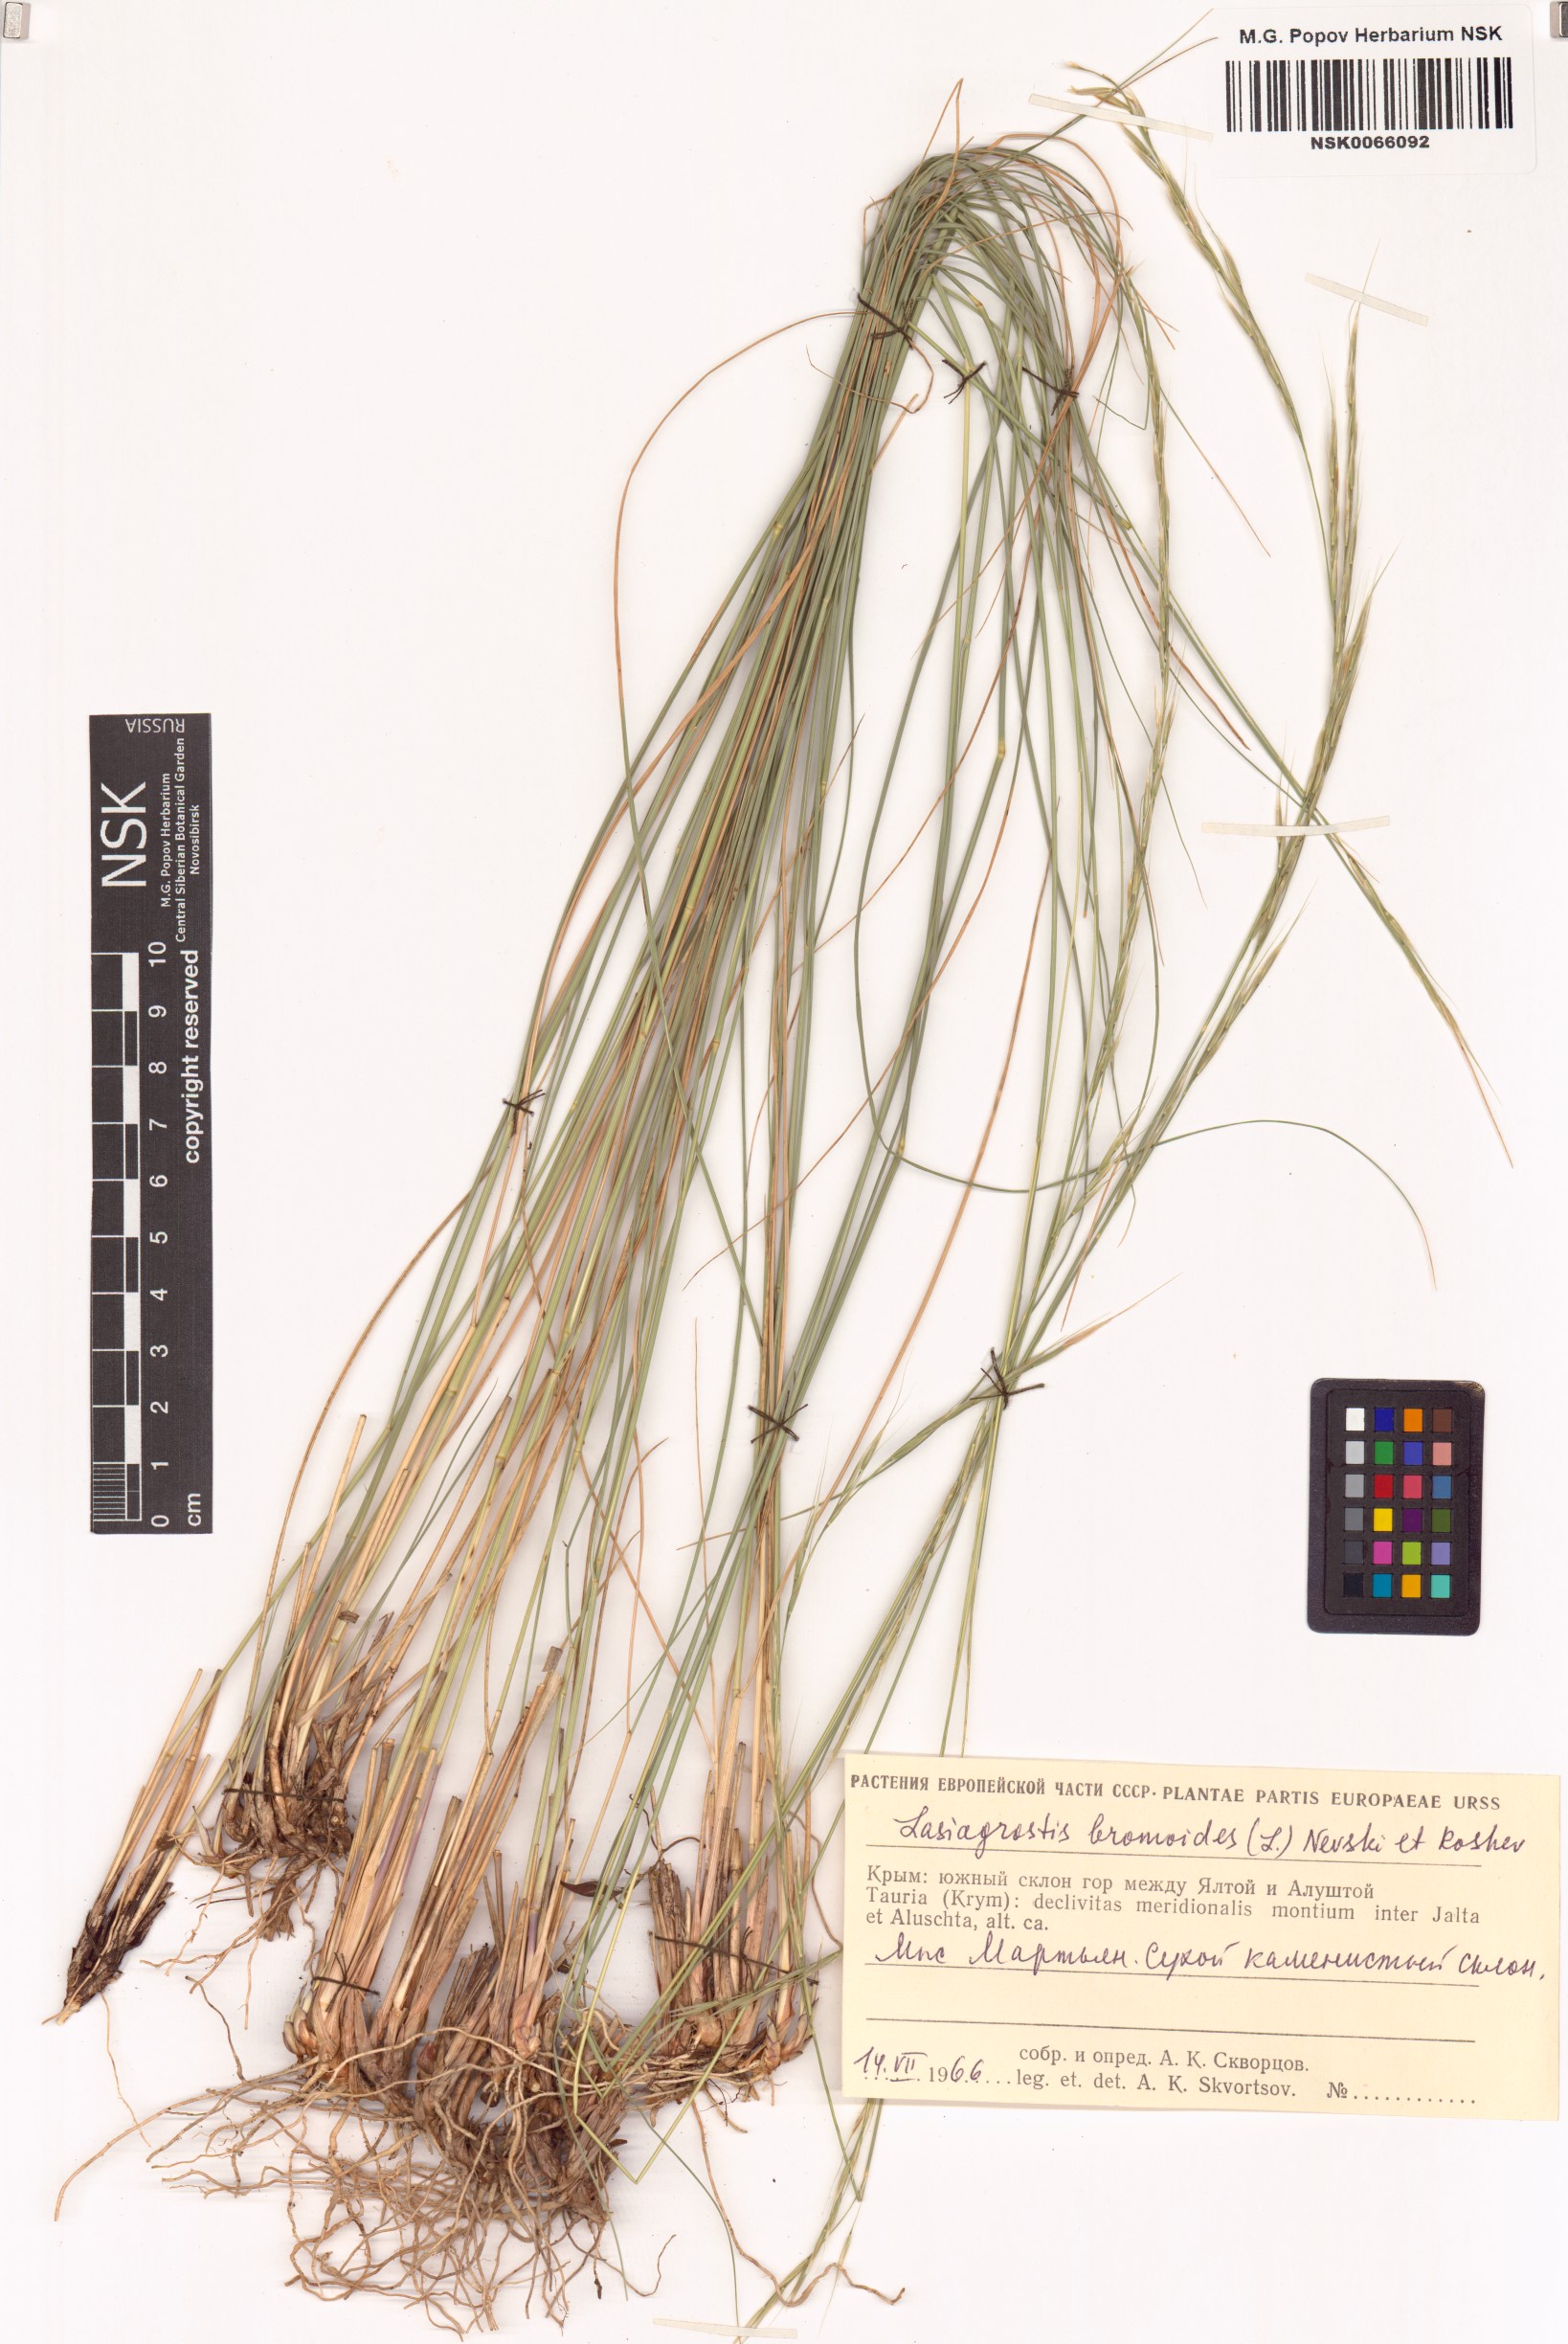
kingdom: Plantae
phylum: Tracheophyta
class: Liliopsida
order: Poales
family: Poaceae
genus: Achnatherum
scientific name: Achnatherum bromoides
